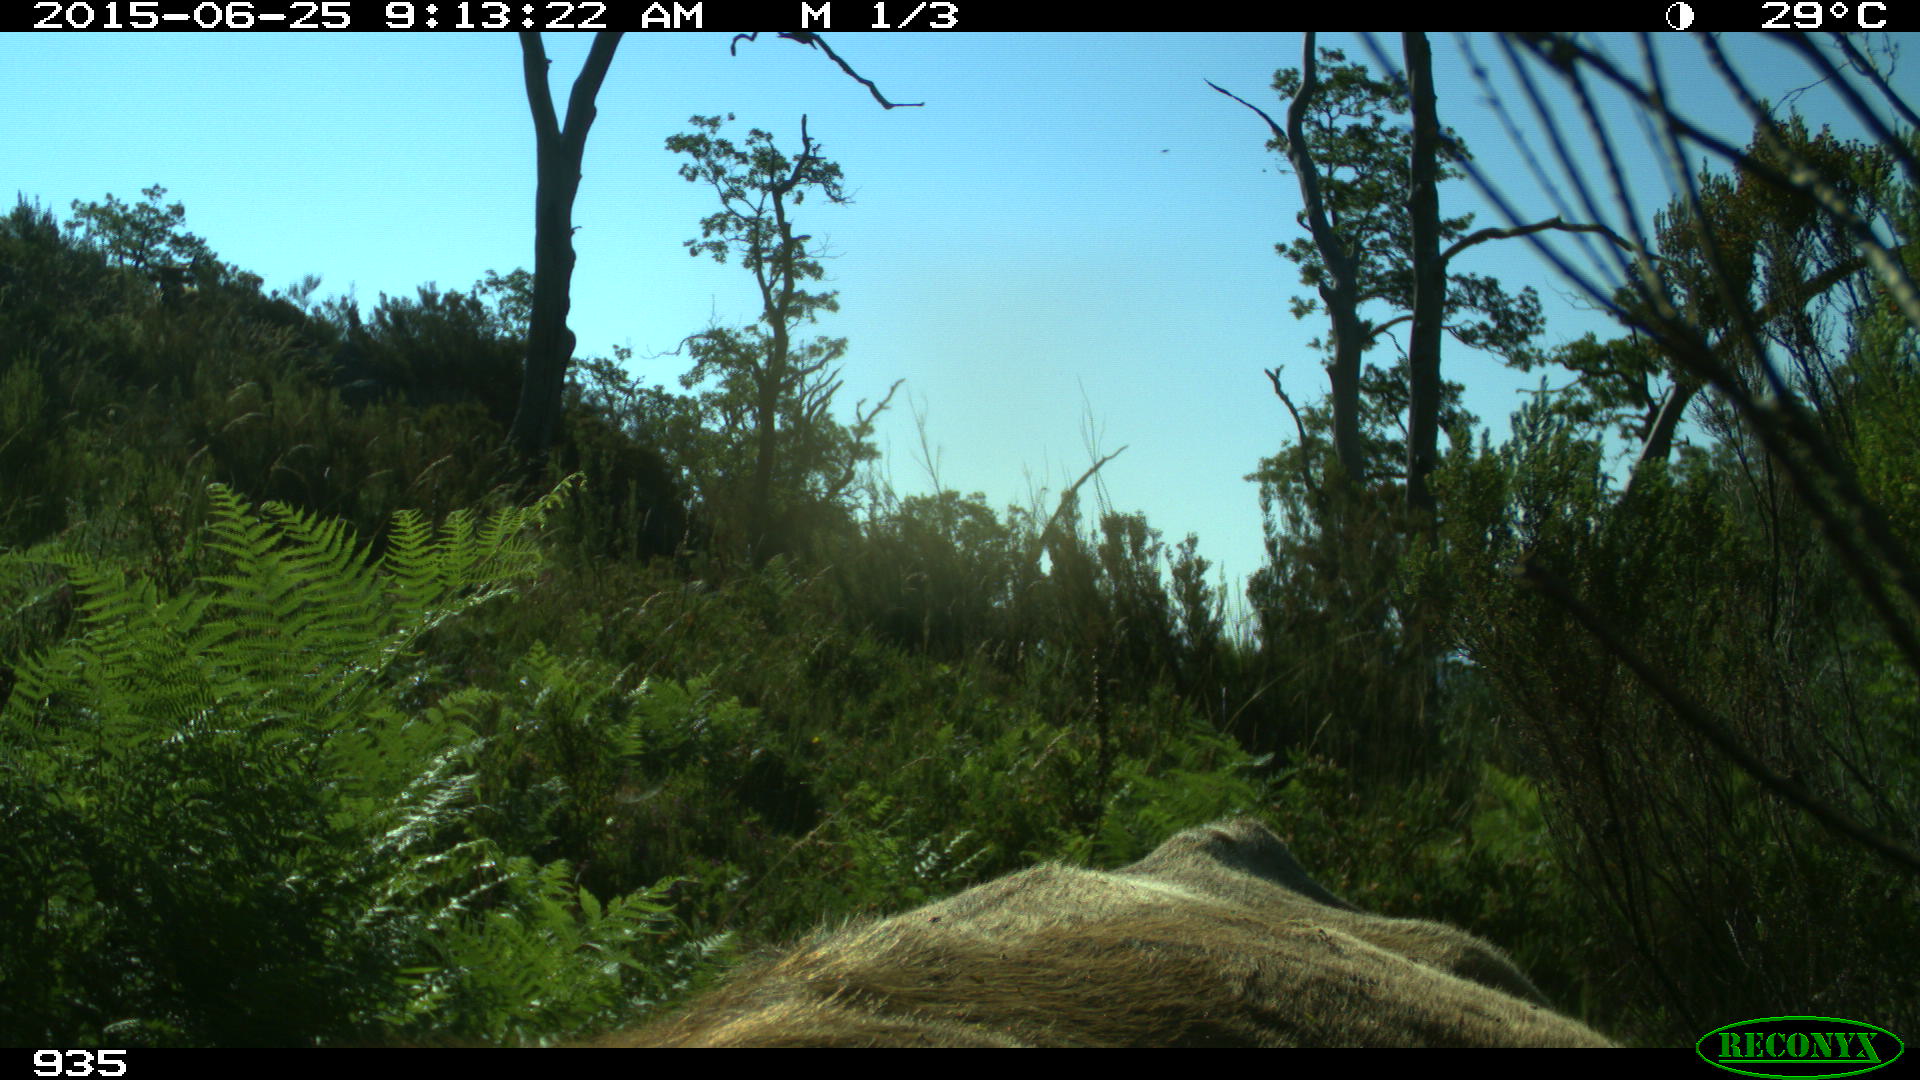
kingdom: Animalia
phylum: Chordata
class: Mammalia
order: Artiodactyla
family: Bovidae
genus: Bos
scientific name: Bos taurus
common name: Domesticated cattle
